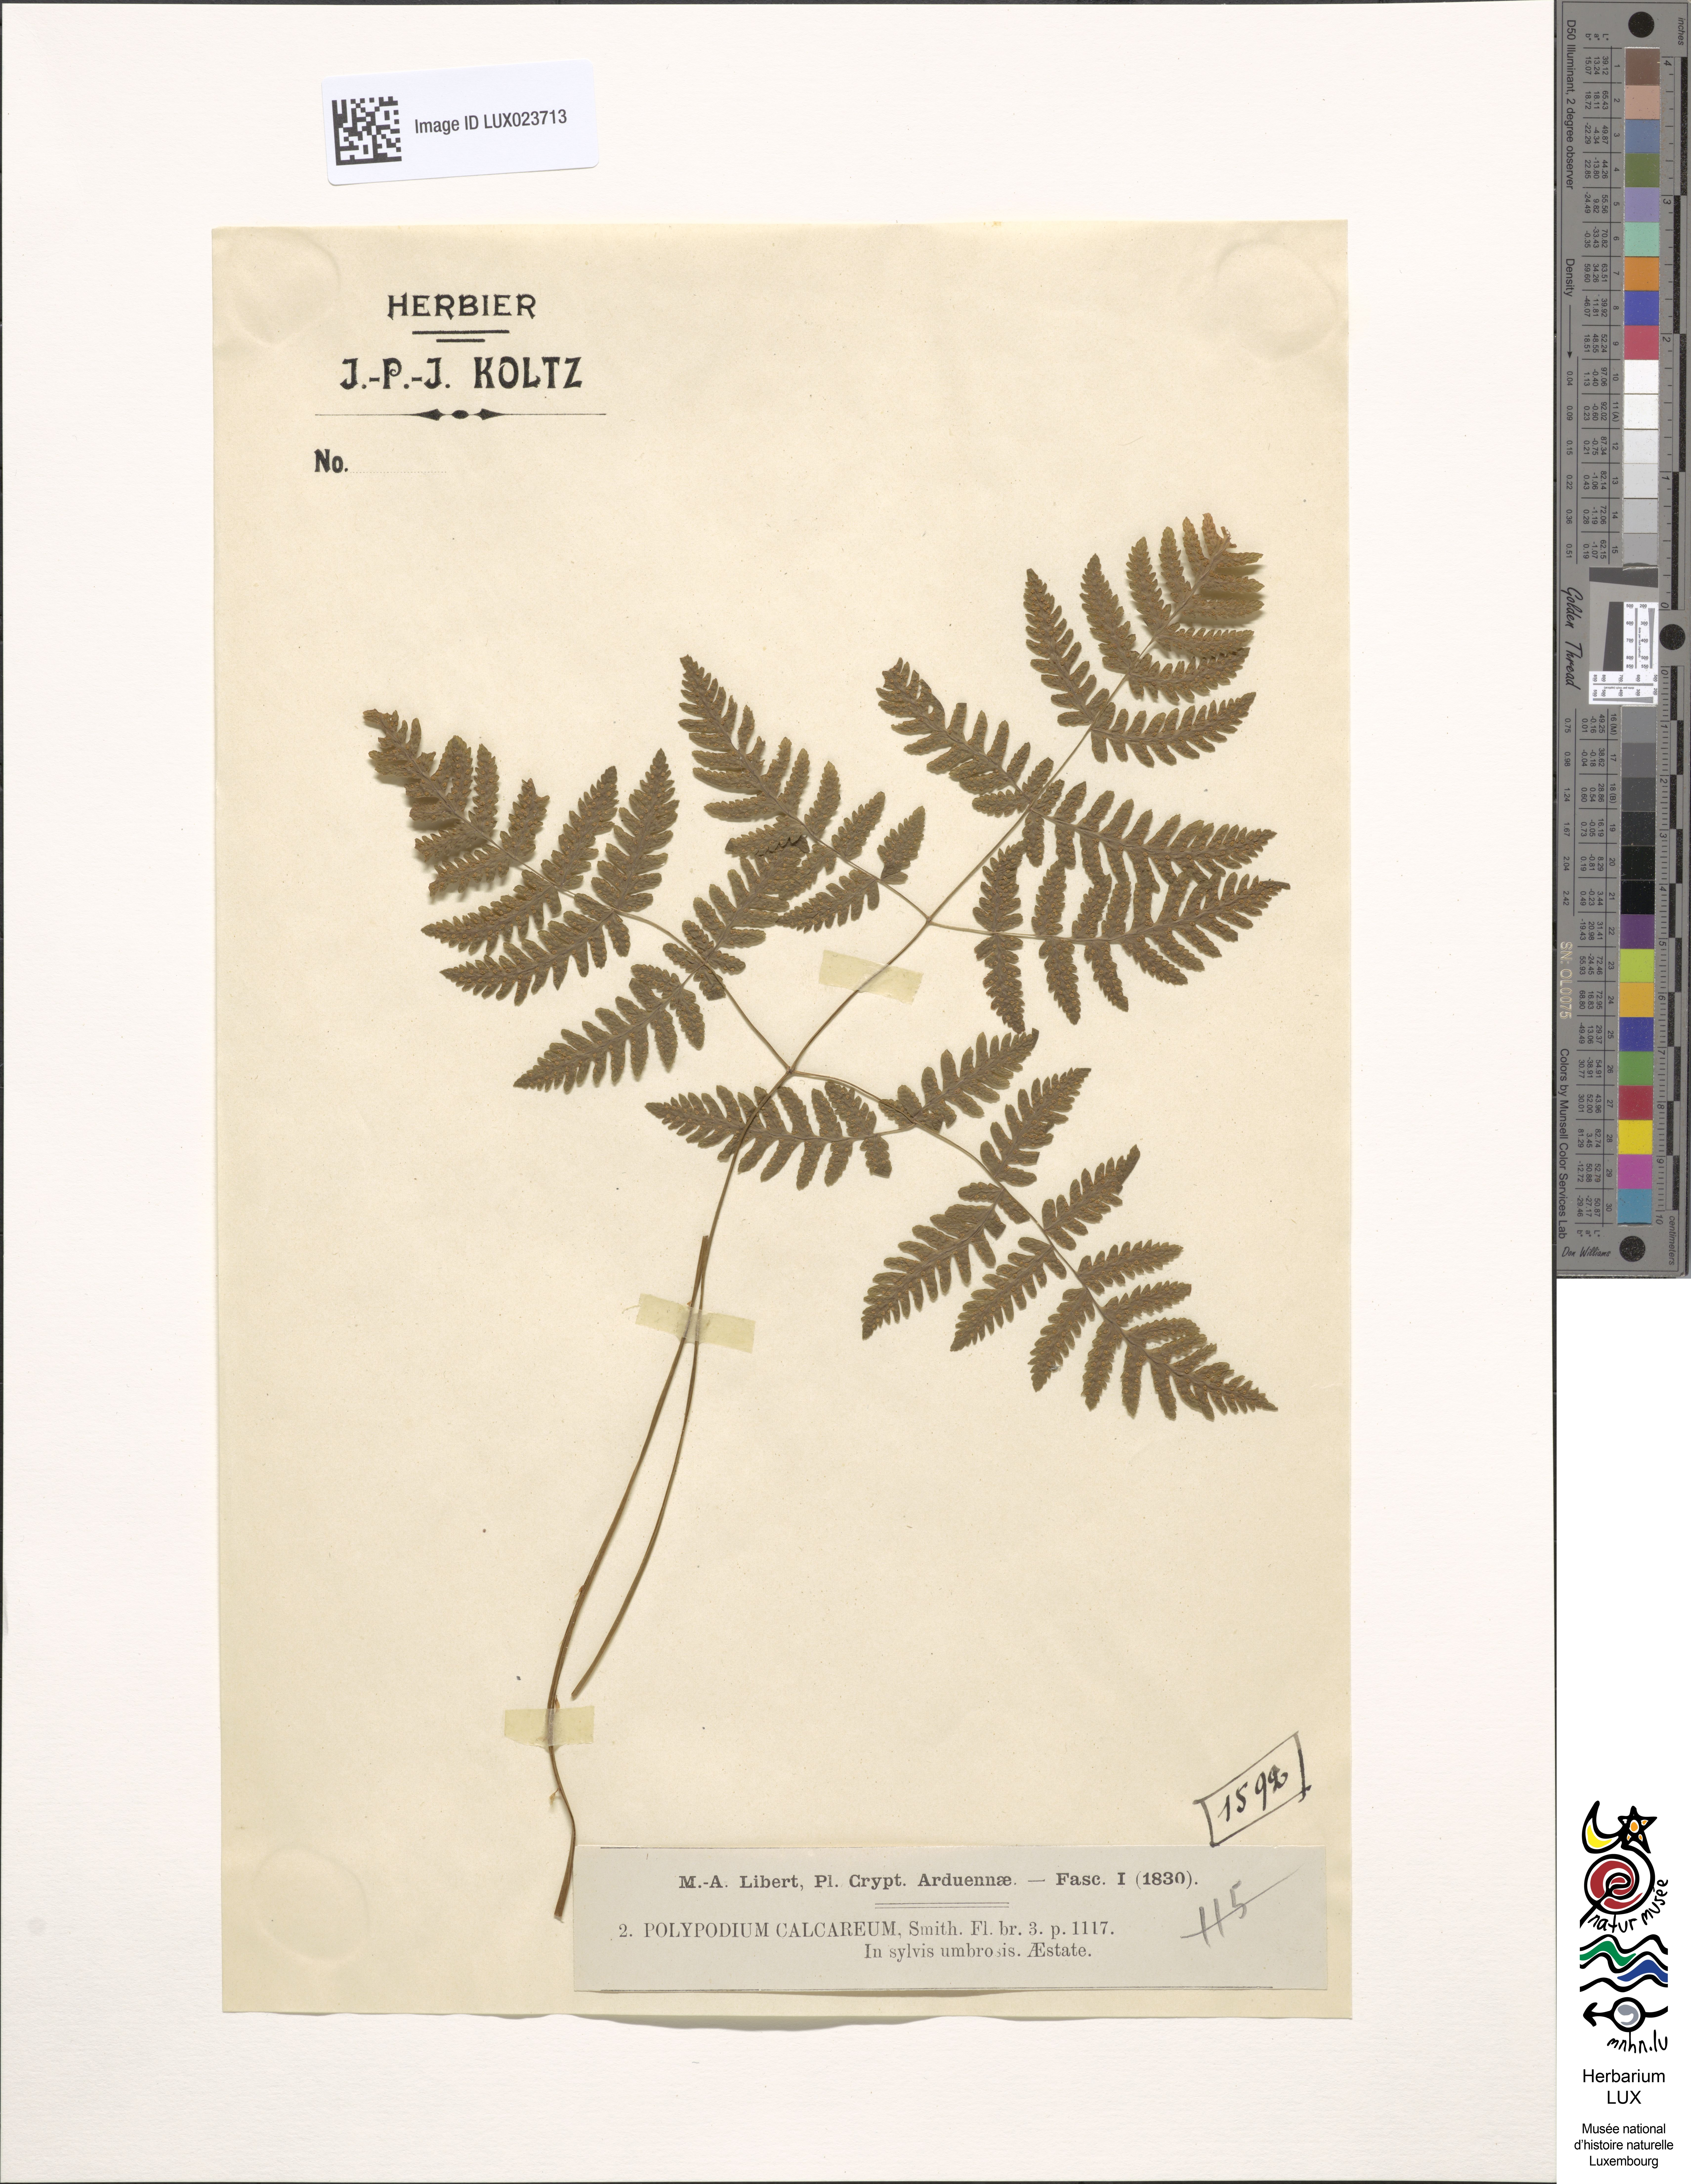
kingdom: Plantae
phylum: Tracheophyta
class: Polypodiopsida
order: Polypodiales
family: Cystopteridaceae
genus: Gymnocarpium
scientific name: Gymnocarpium robertianum
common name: Limestone fern
